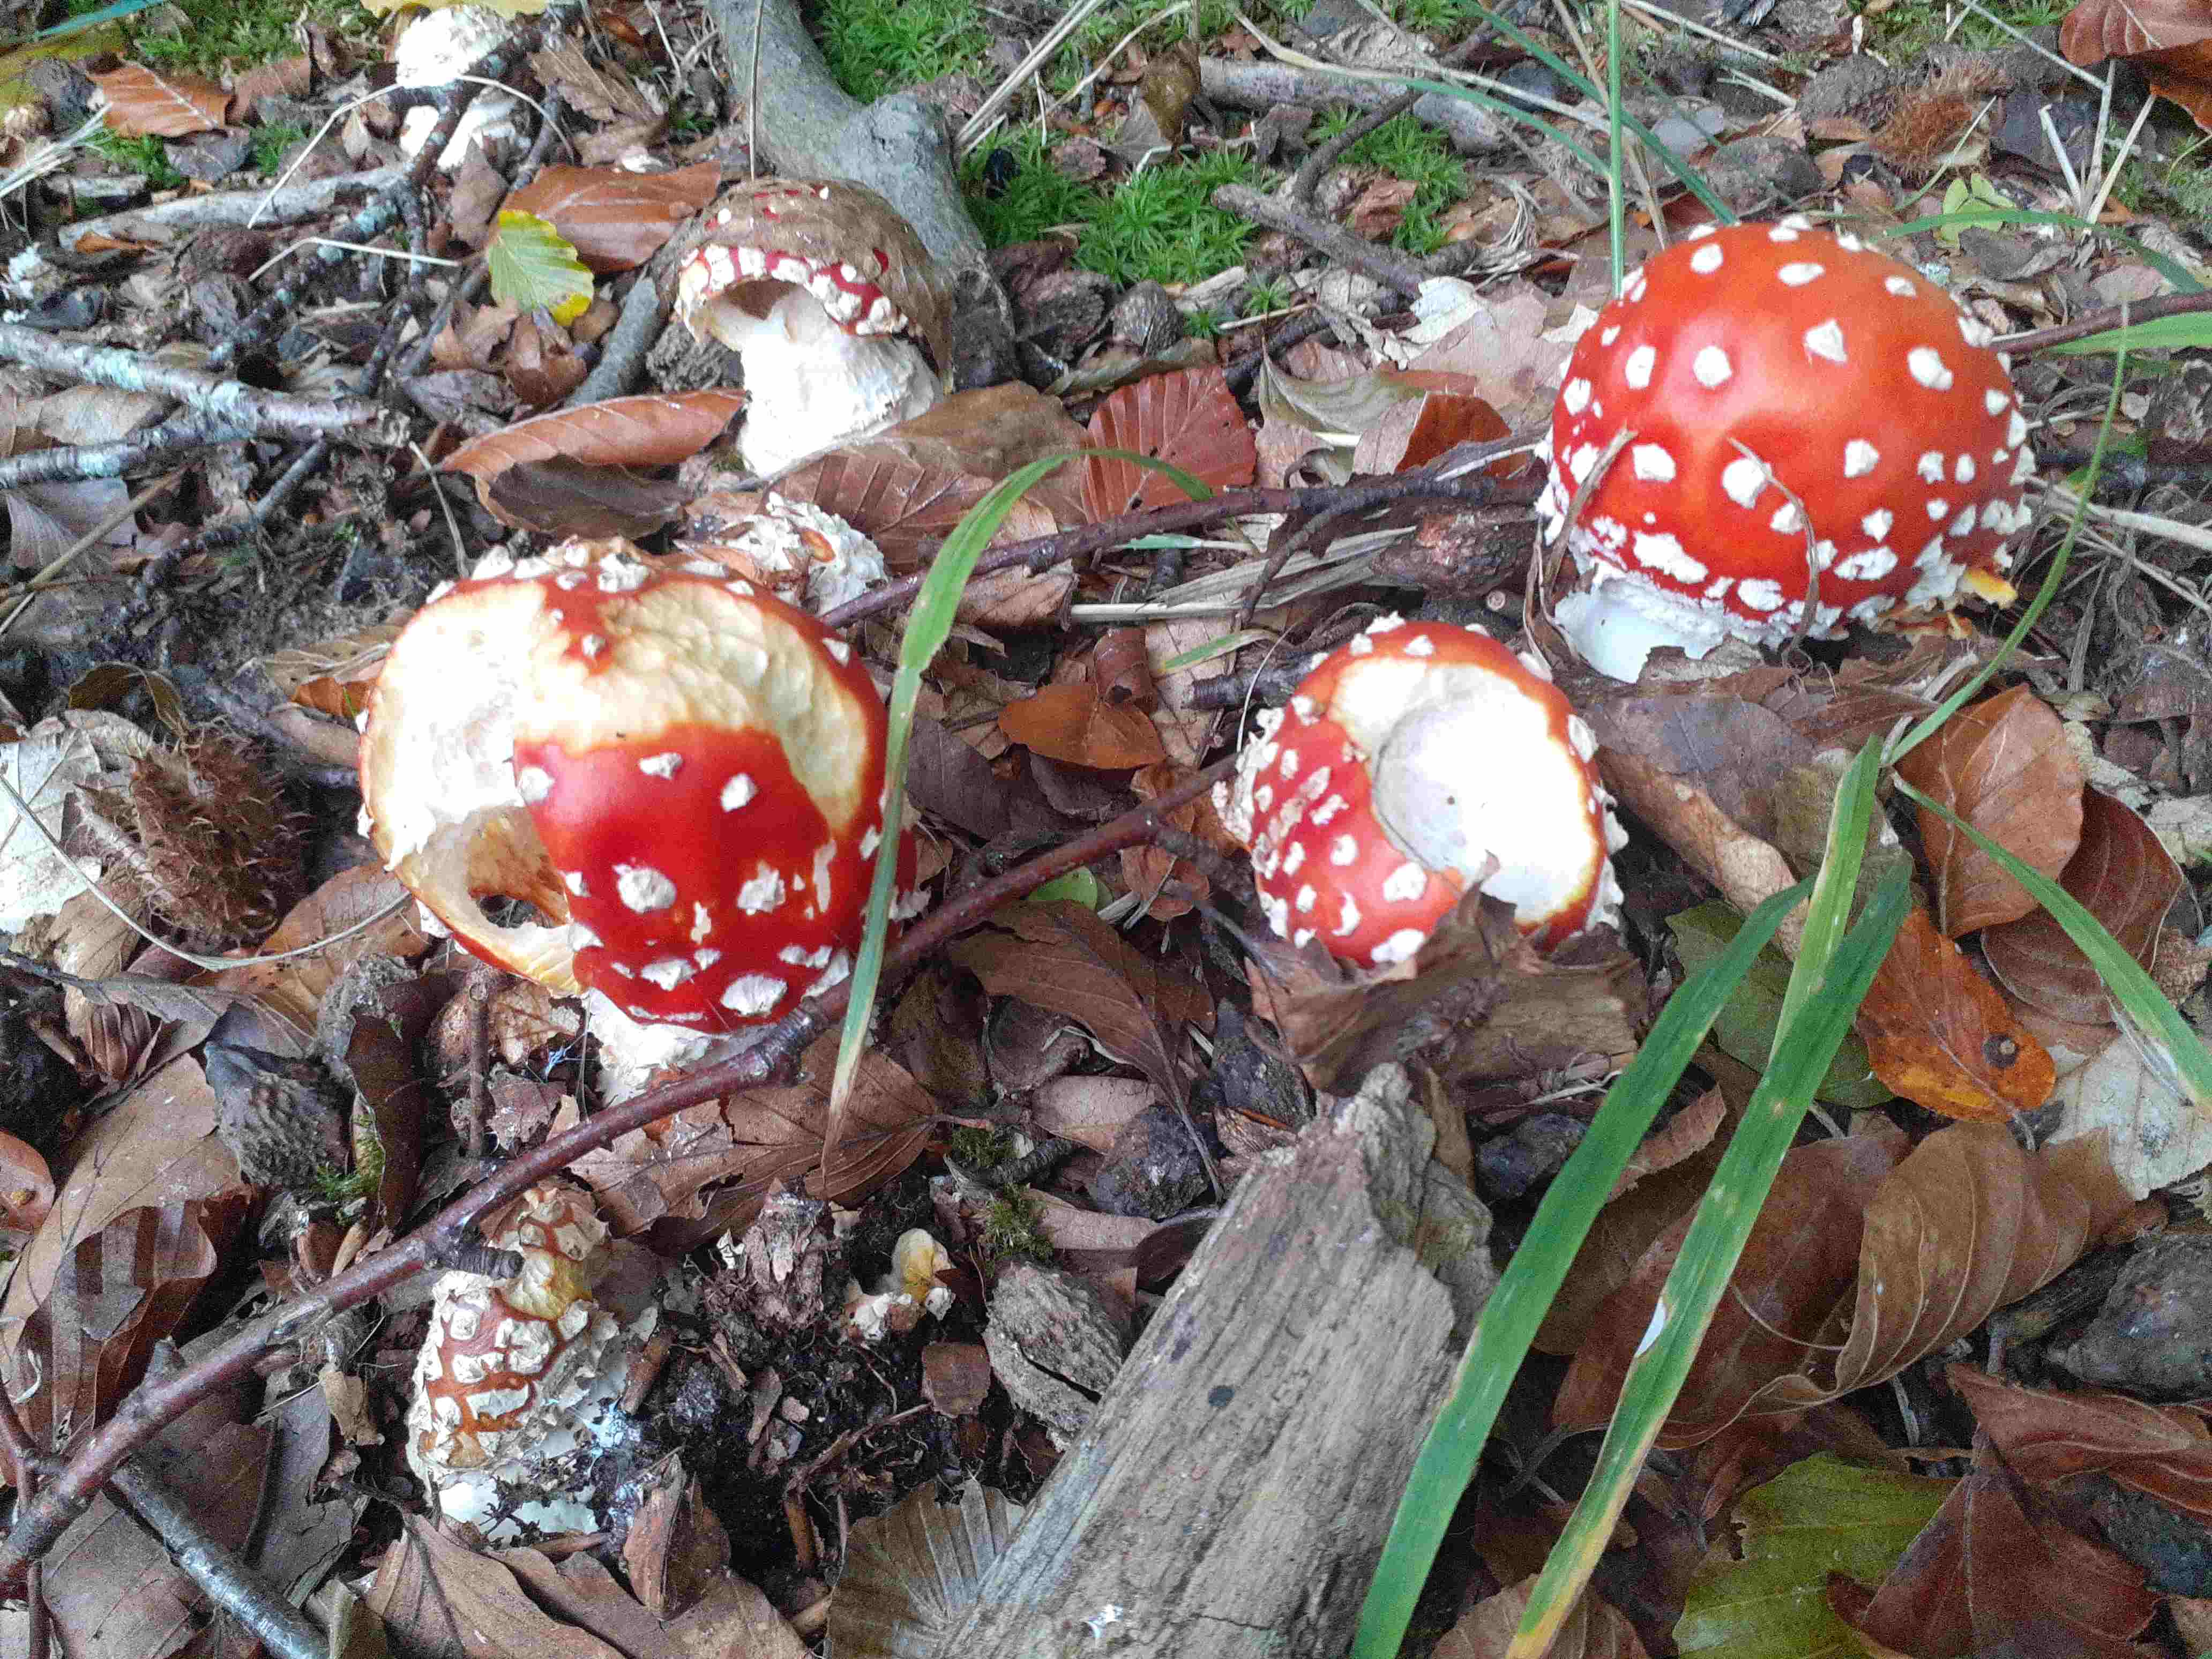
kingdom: Fungi
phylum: Basidiomycota
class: Agaricomycetes
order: Agaricales
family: Amanitaceae
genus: Amanita
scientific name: Amanita muscaria
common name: rød fluesvamp
